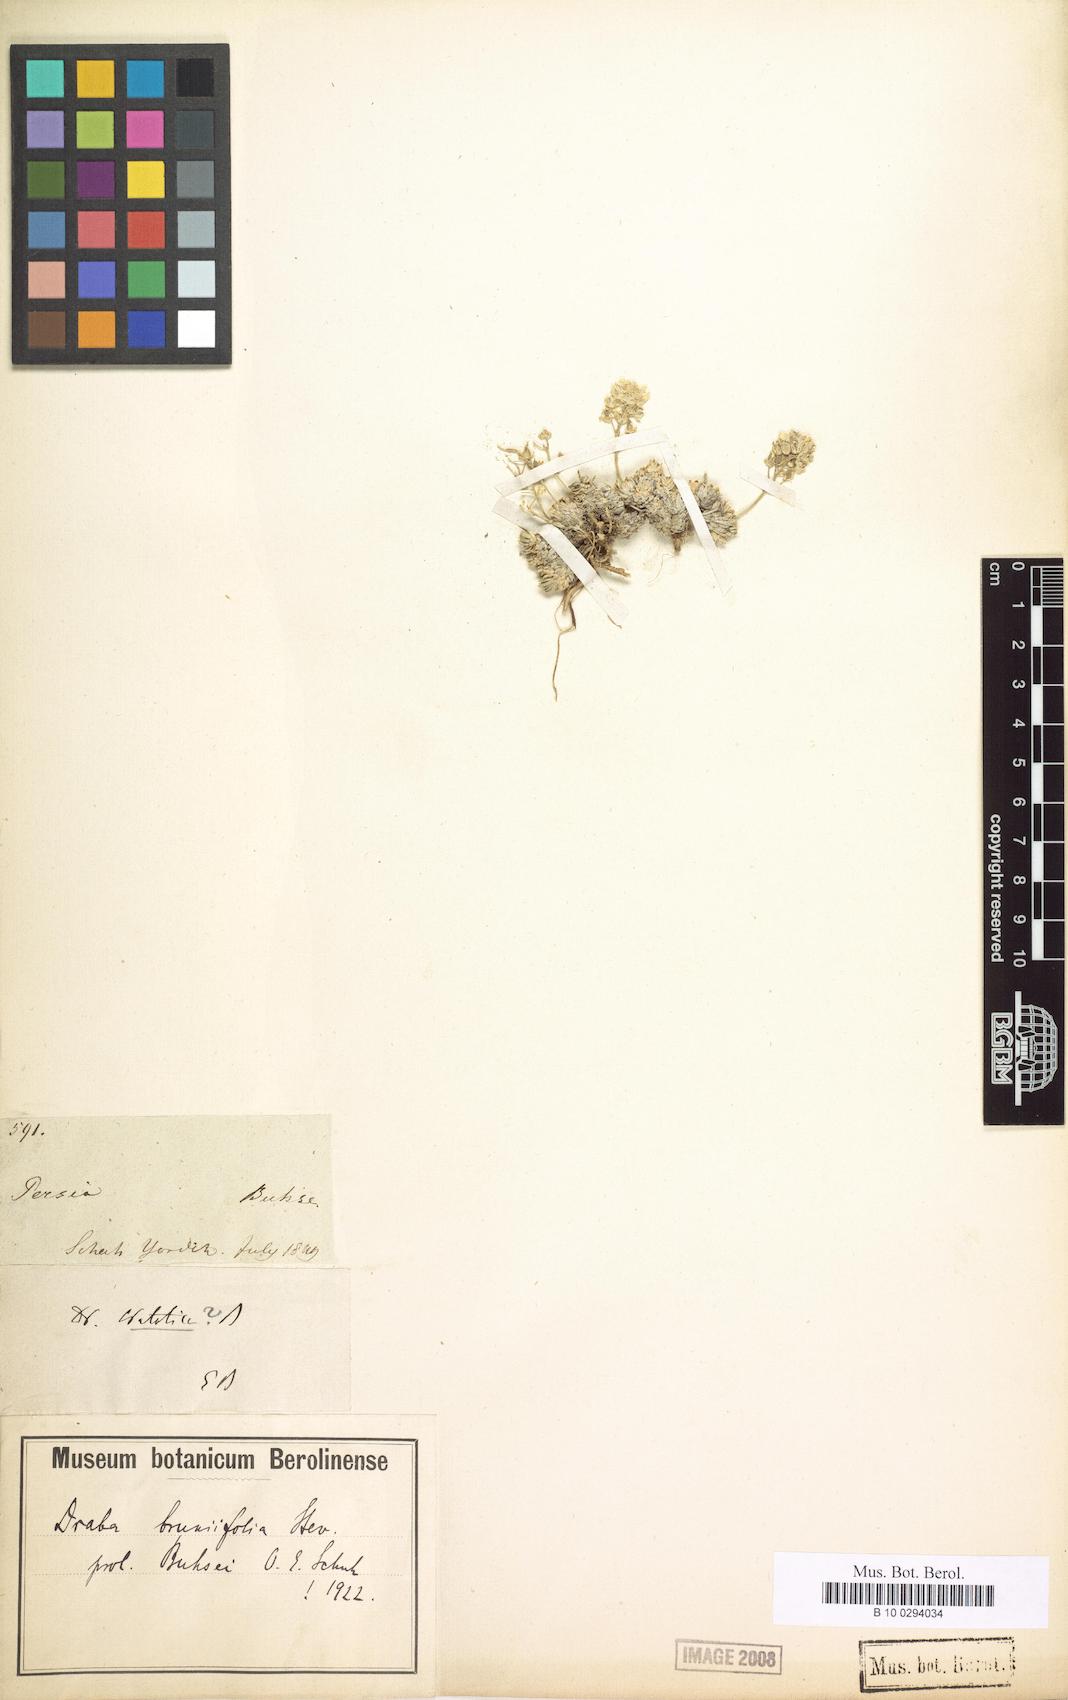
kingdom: Plantae
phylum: Tracheophyta
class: Magnoliopsida
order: Brassicales
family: Brassicaceae
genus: Draba
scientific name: Draba bruniifolia
